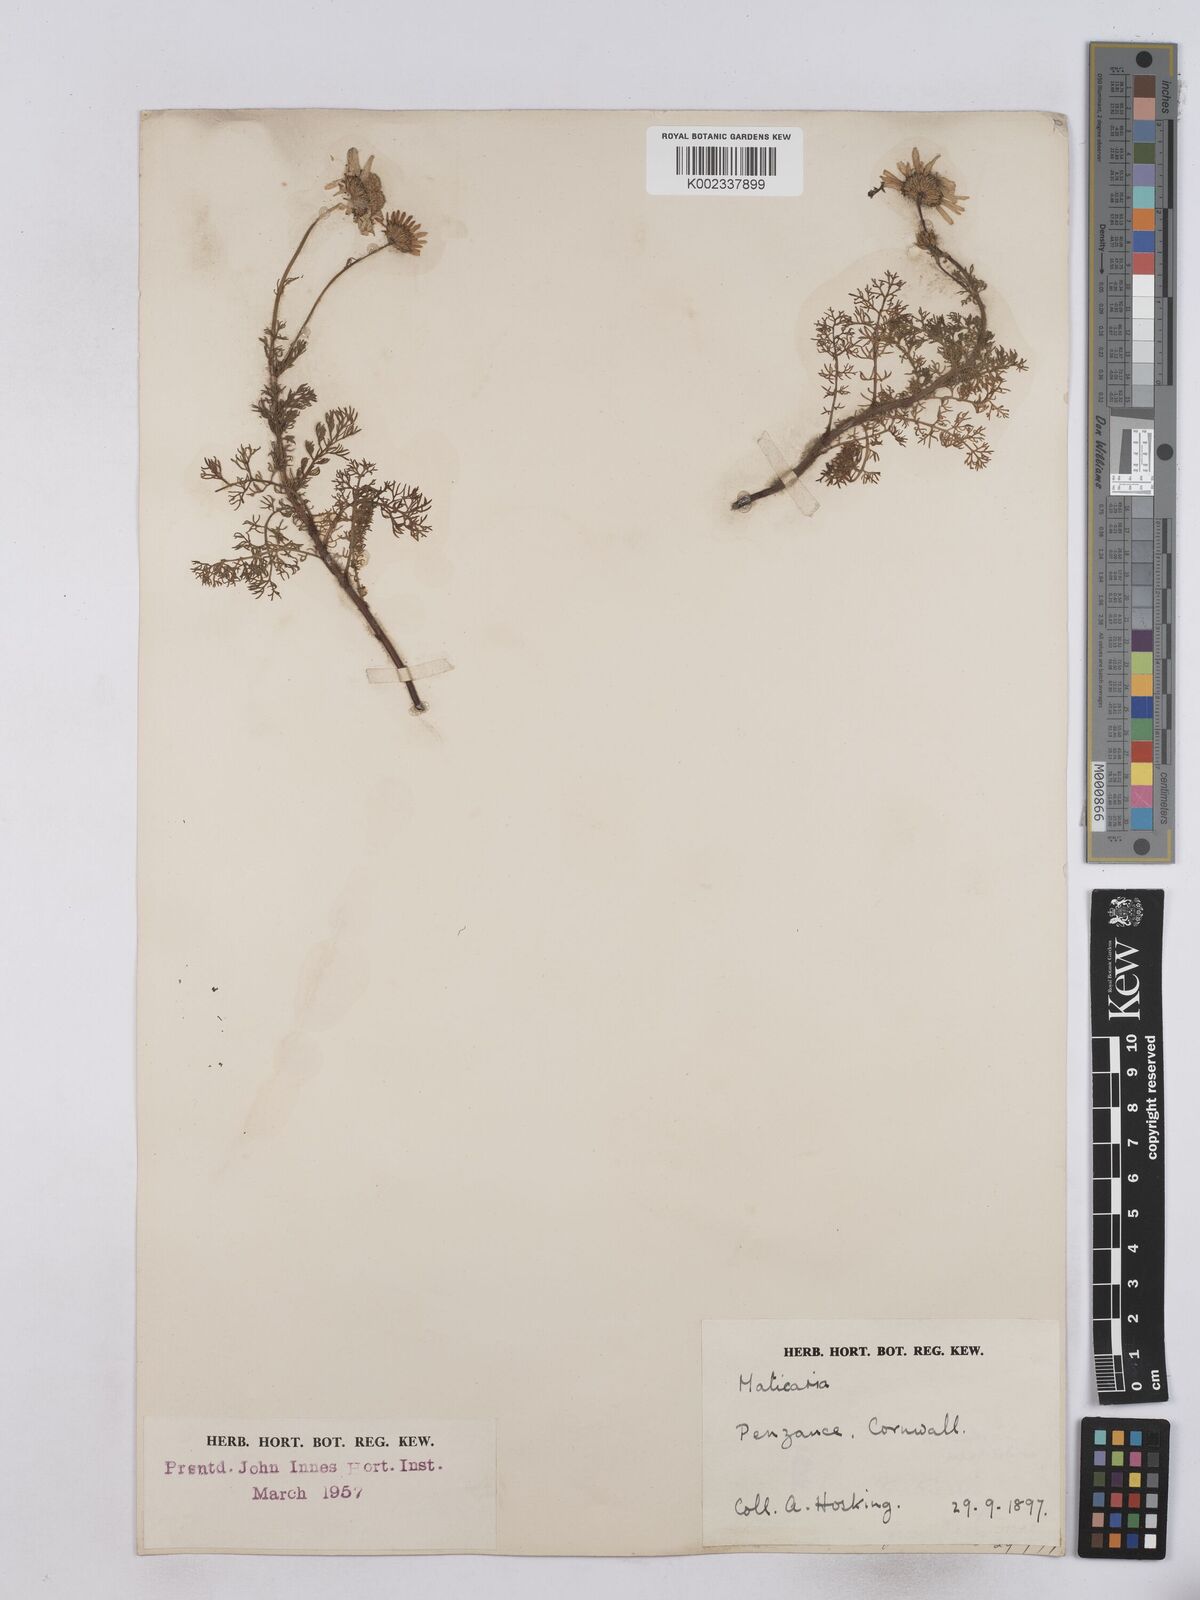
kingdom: Plantae
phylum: Tracheophyta
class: Magnoliopsida
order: Asterales
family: Asteraceae
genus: Matricaria
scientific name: Matricaria discoidea
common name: Disc mayweed
